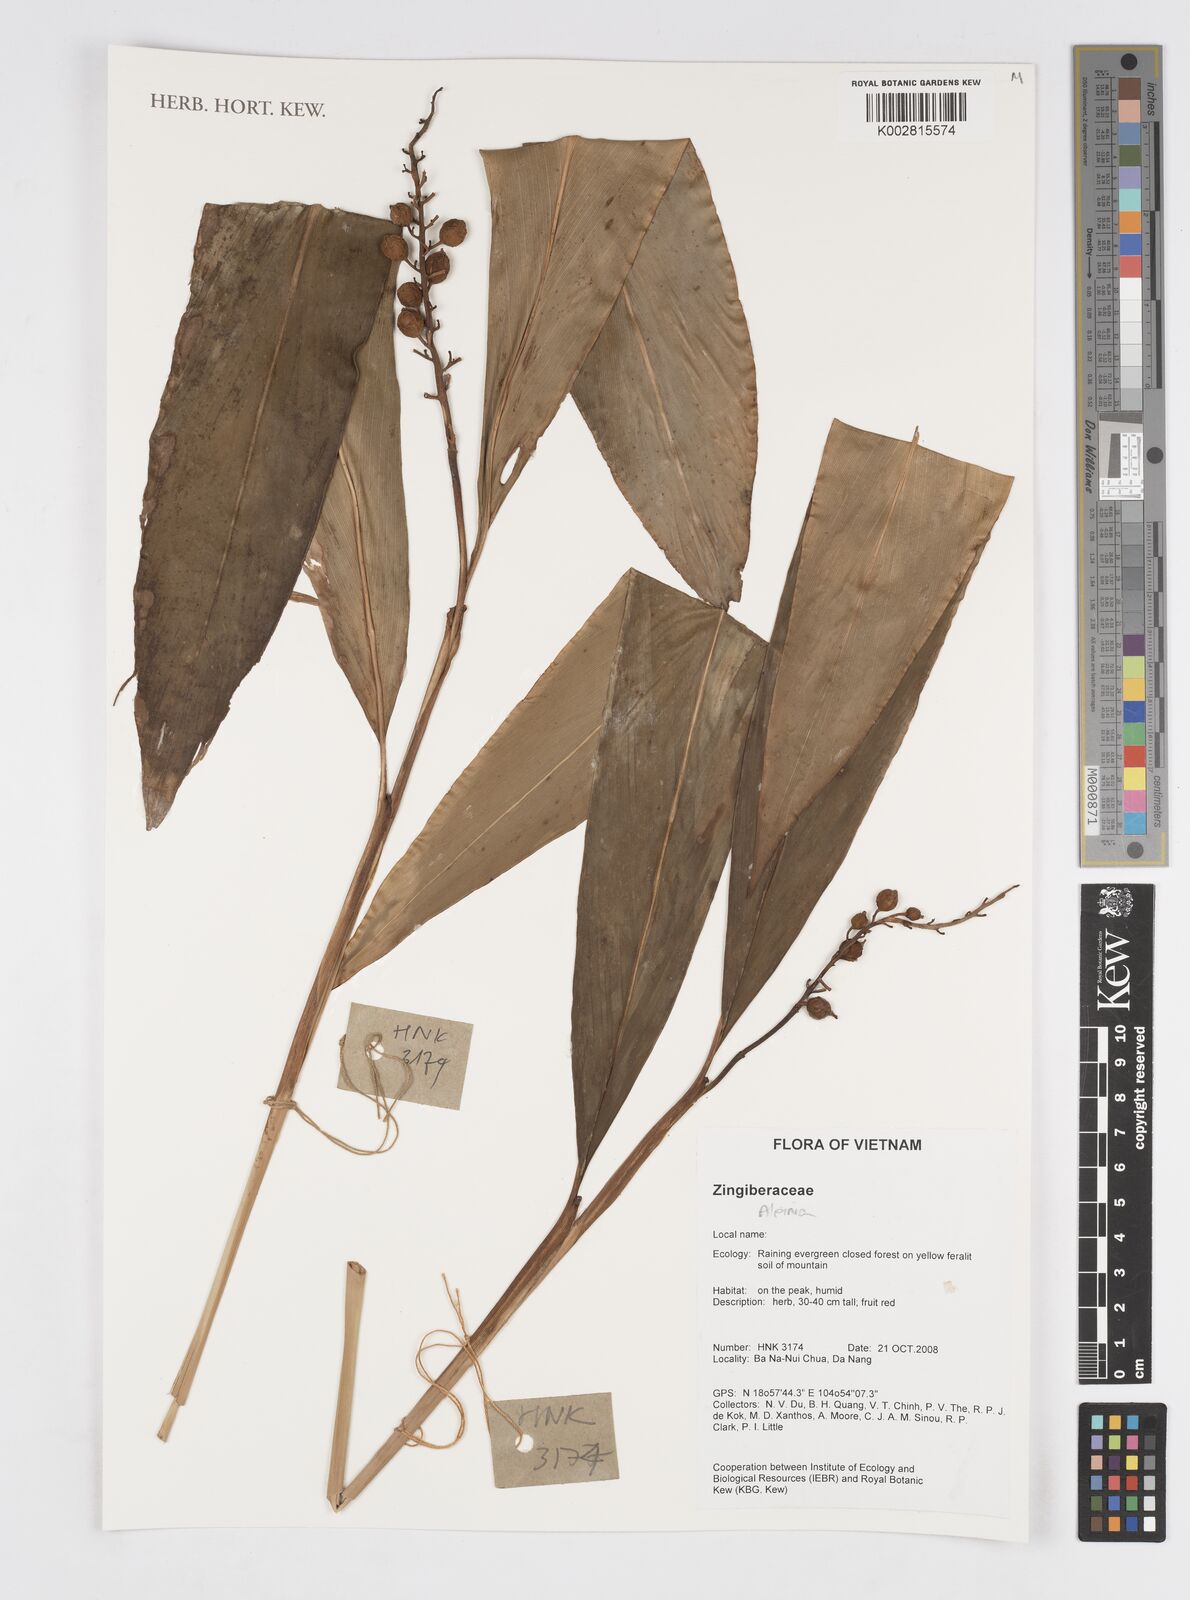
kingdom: Plantae
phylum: Tracheophyta
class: Liliopsida
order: Zingiberales
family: Zingiberaceae
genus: Alpinia
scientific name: Alpinia
